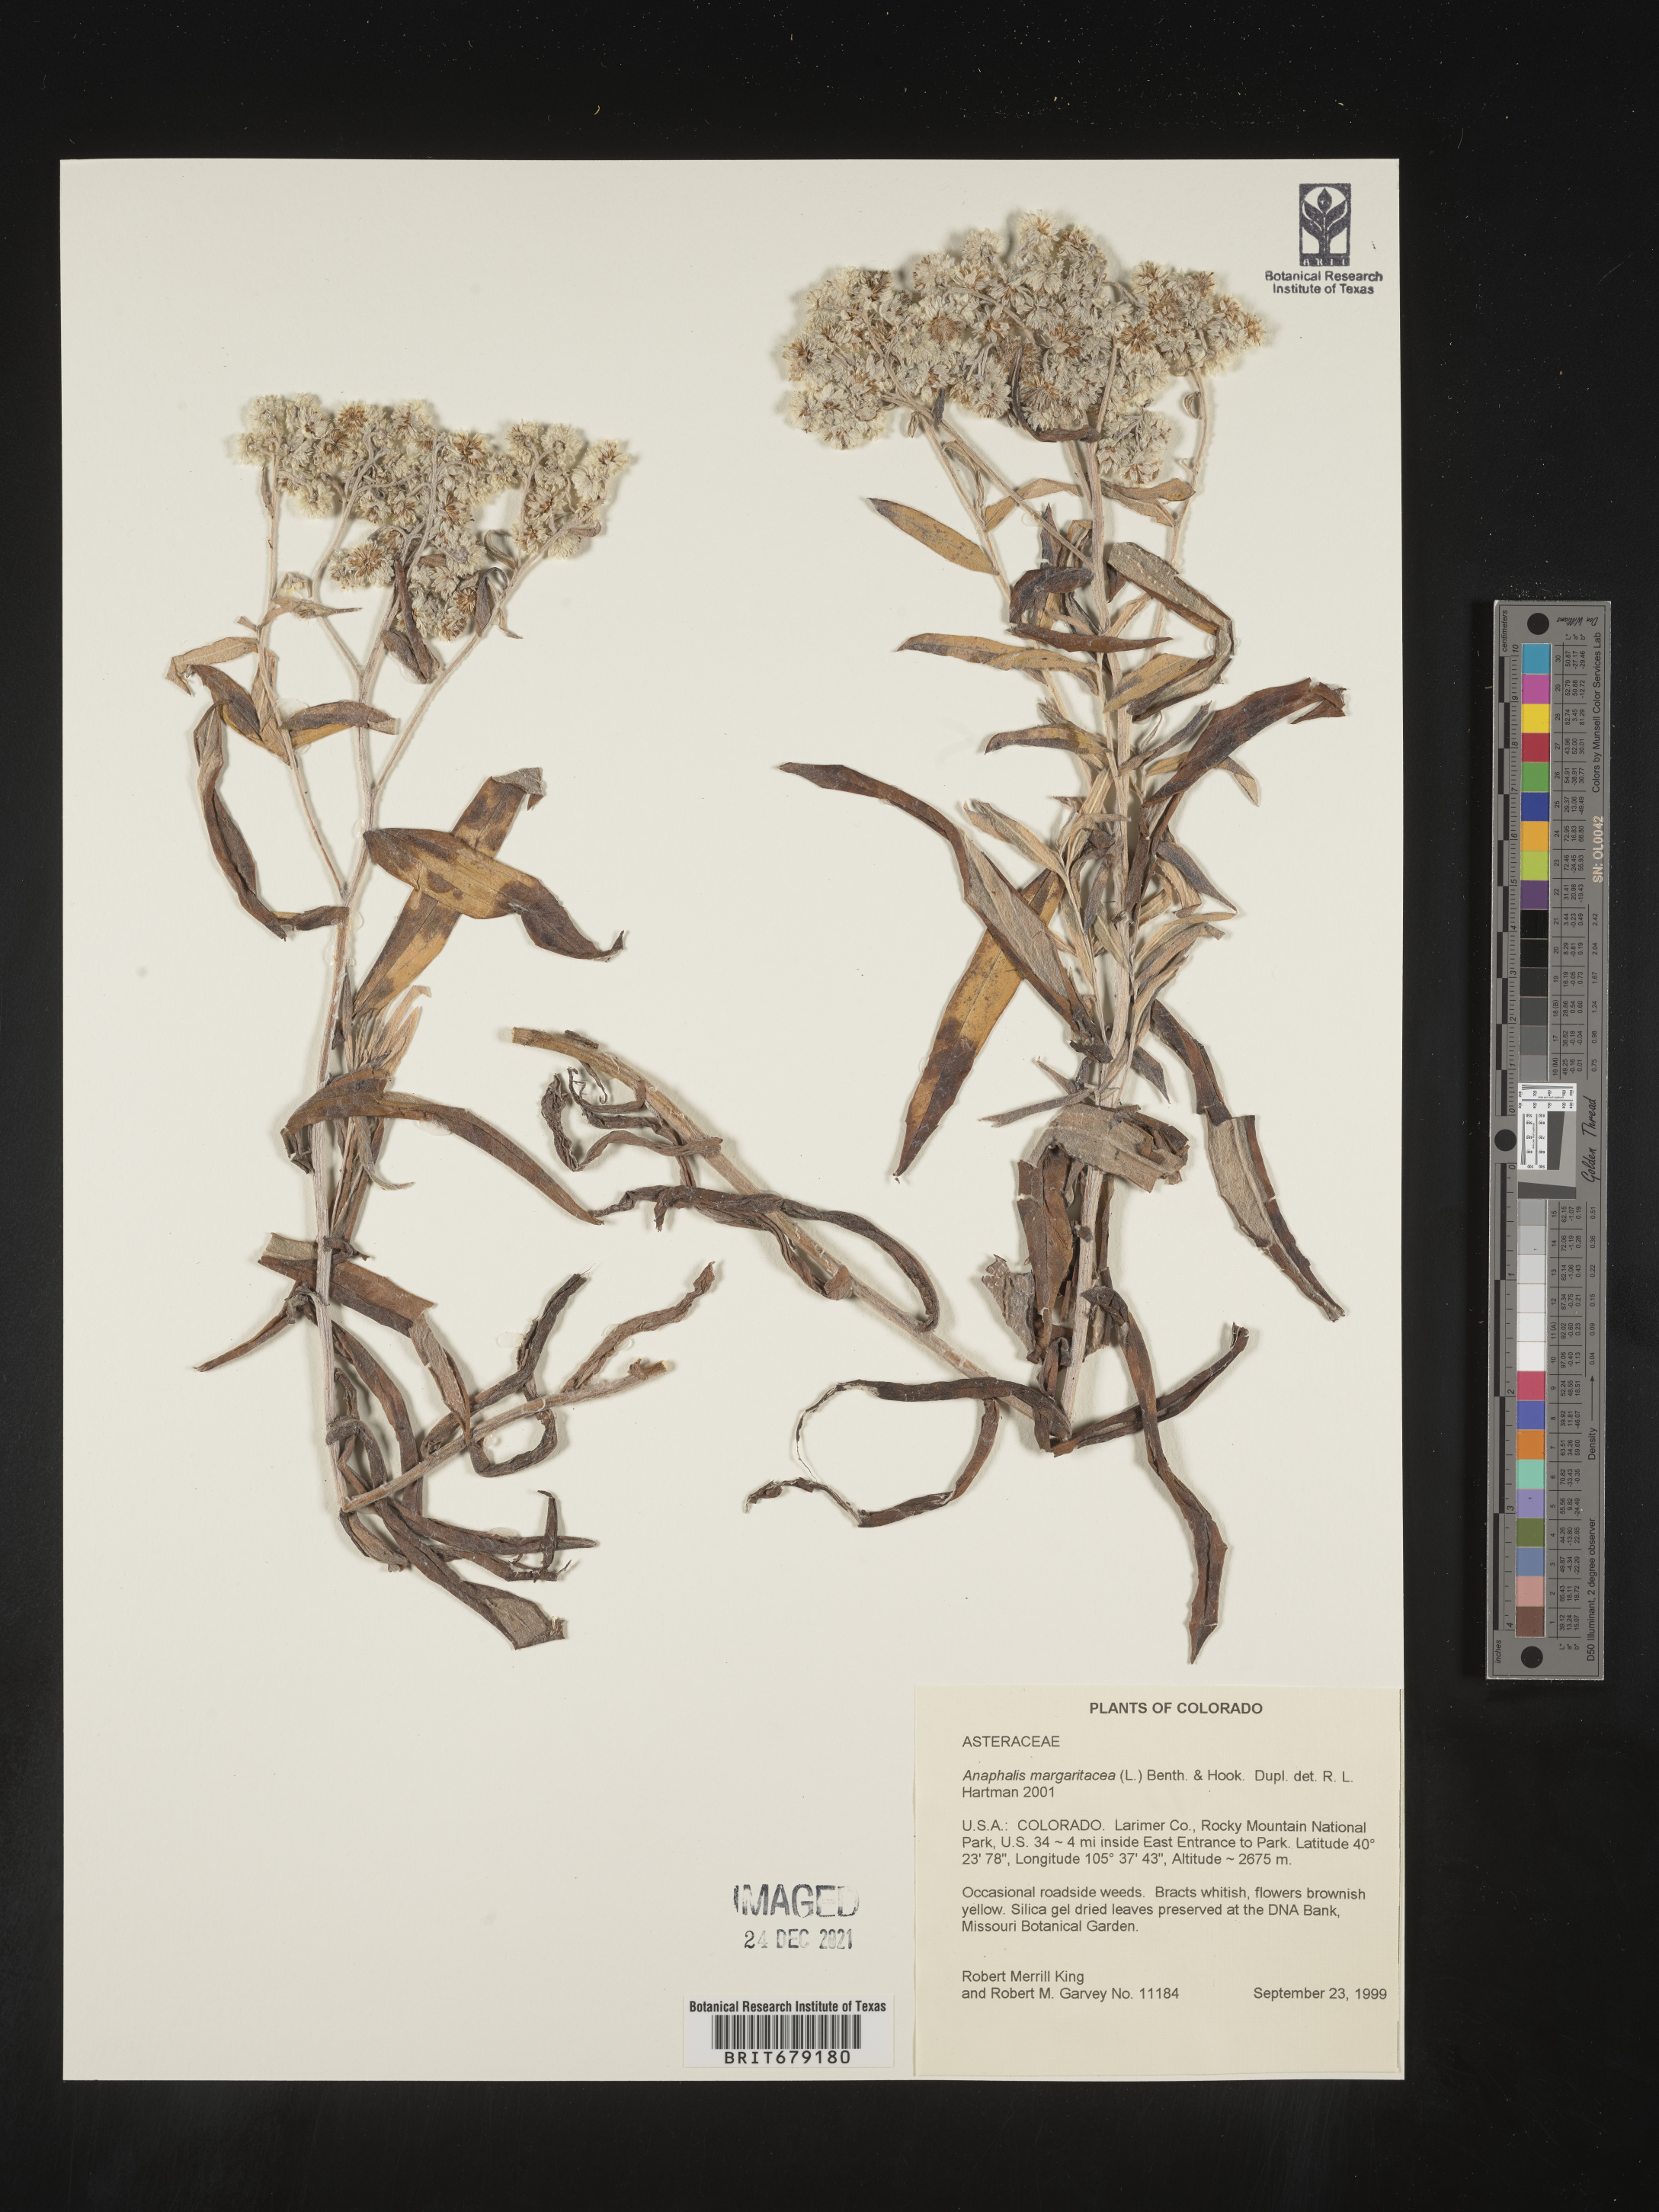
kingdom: Plantae
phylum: Tracheophyta
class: Magnoliopsida
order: Asterales
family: Asteraceae
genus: Anaphalis
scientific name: Anaphalis margaritacea
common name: Pearly everlasting
